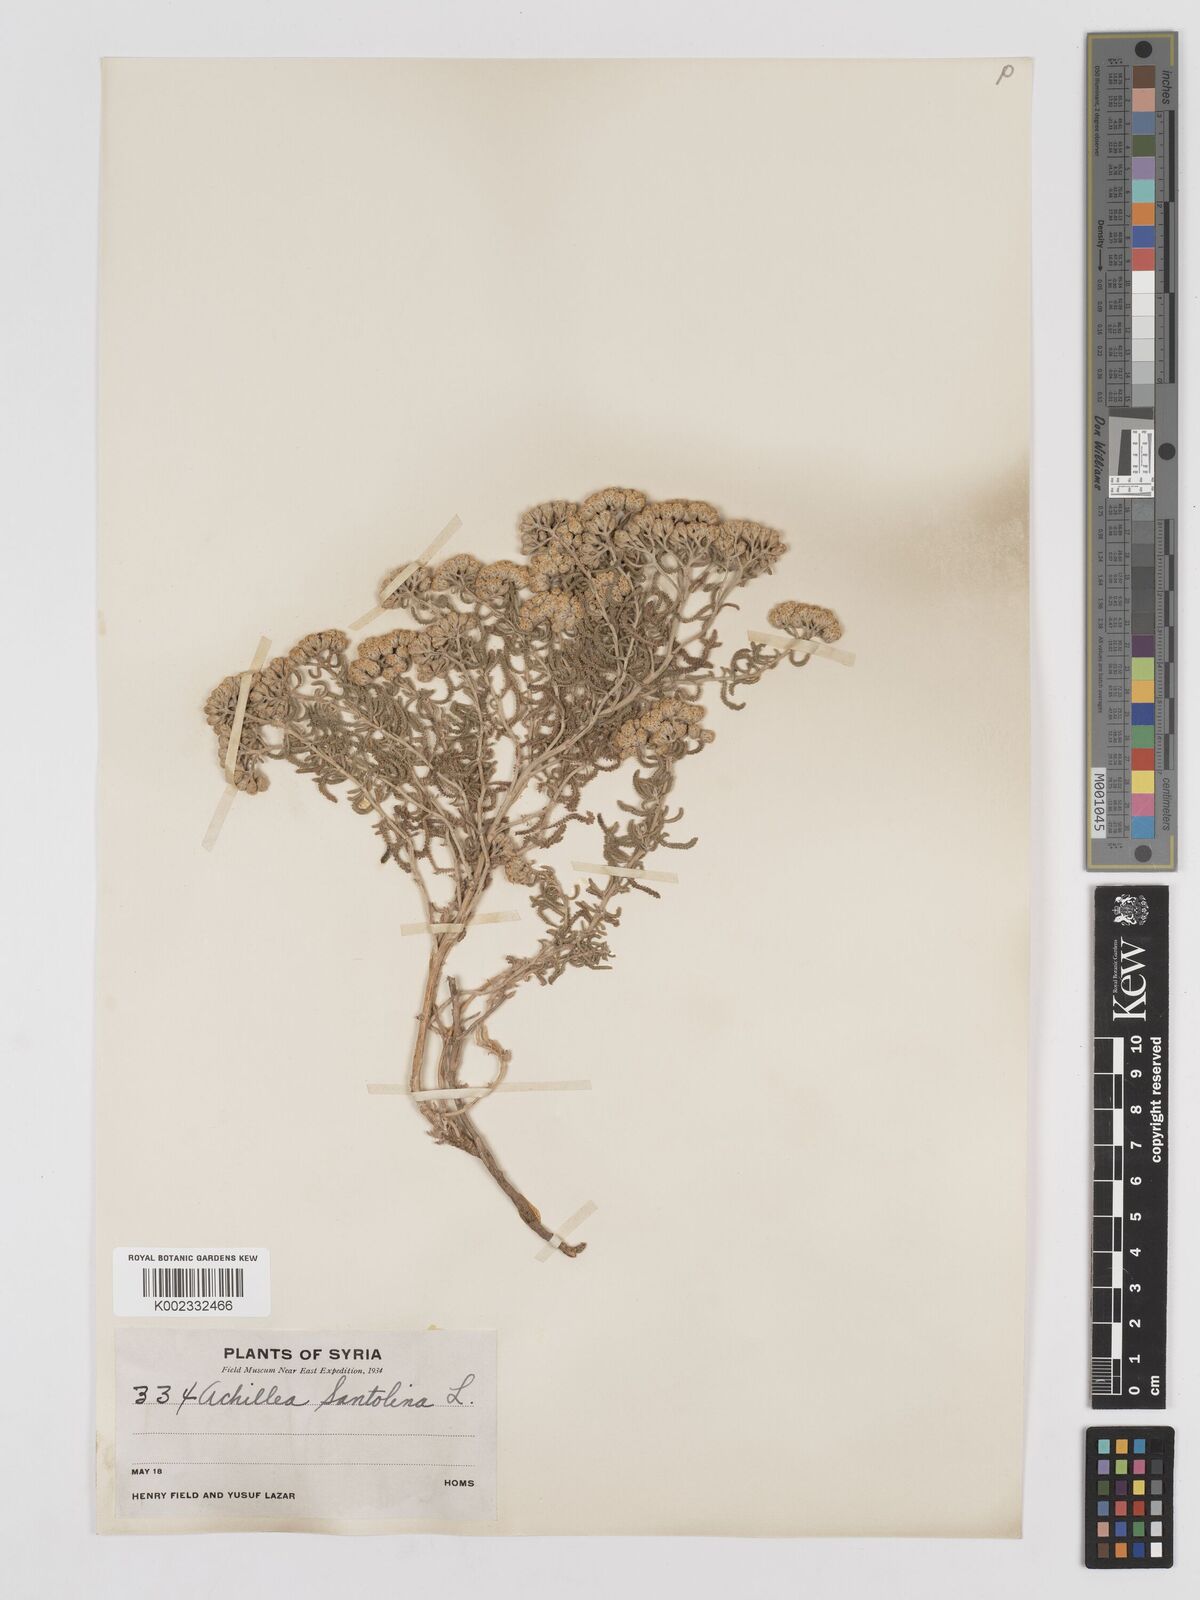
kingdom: Plantae
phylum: Tracheophyta
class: Magnoliopsida
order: Asterales
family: Asteraceae
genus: Achillea
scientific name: Achillea tenuifolia
